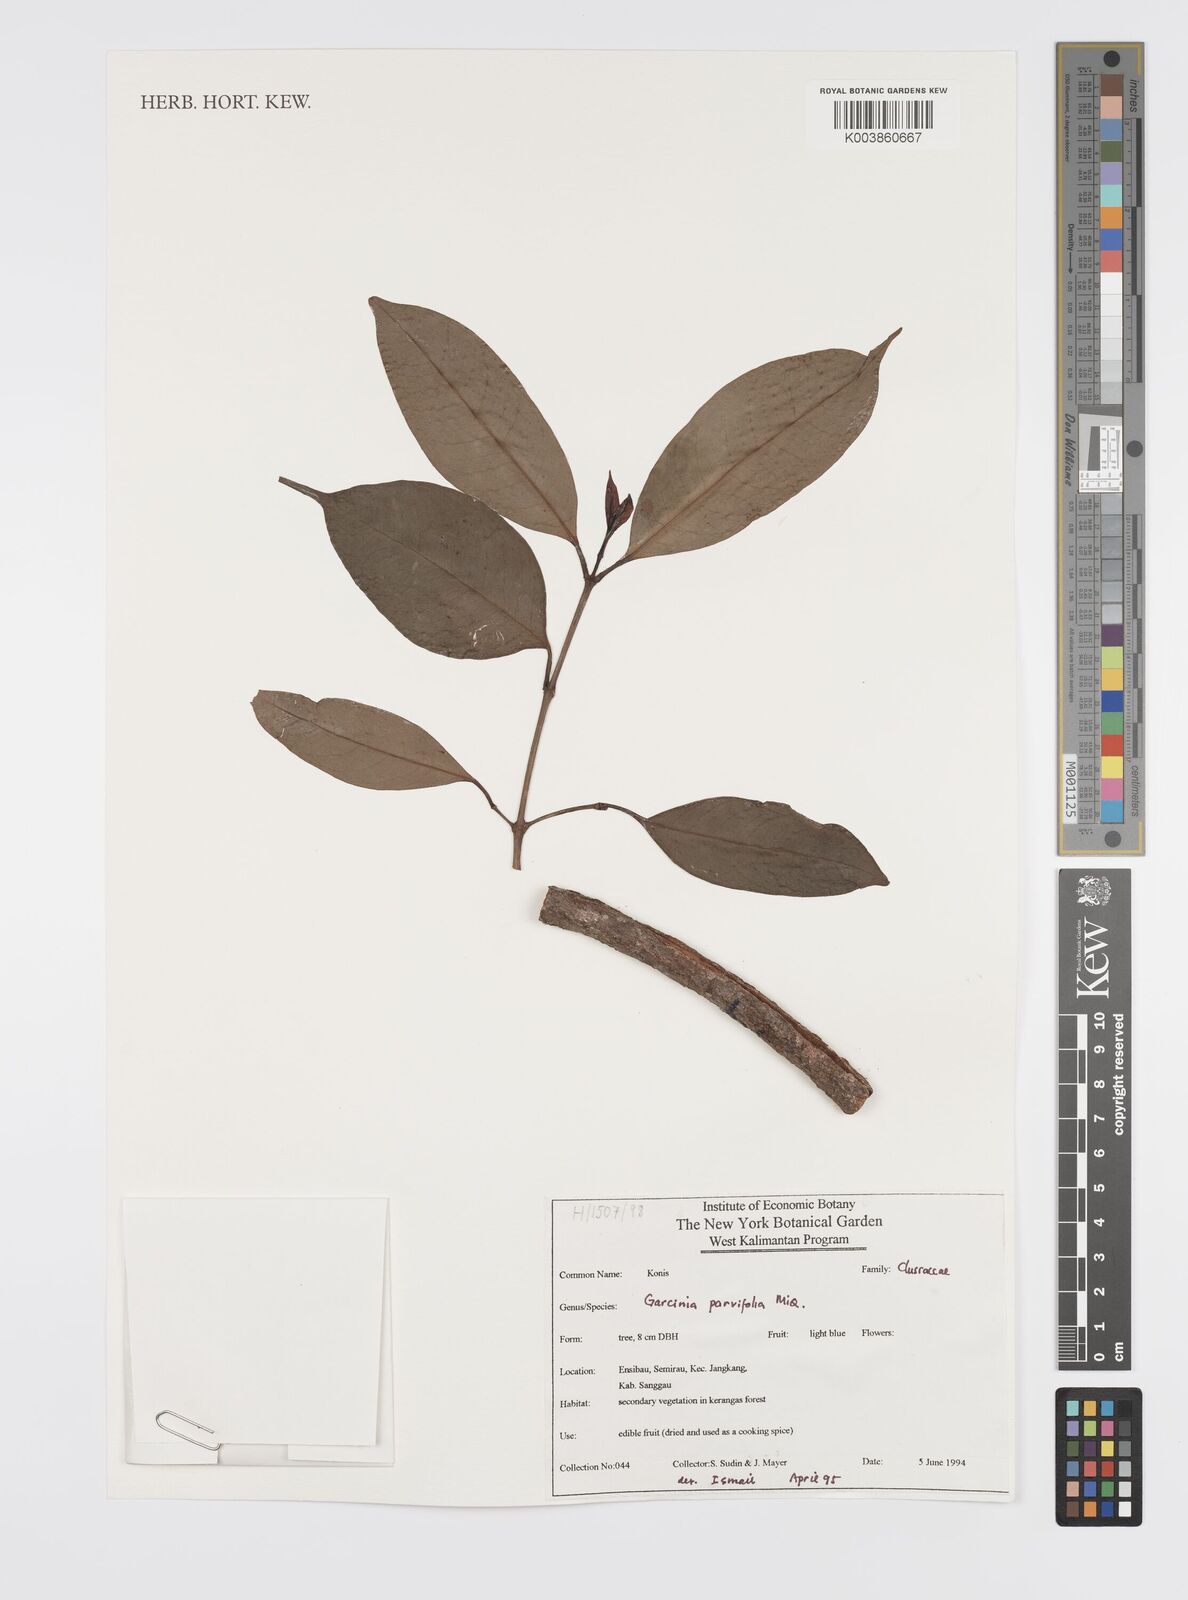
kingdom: Plantae
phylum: Tracheophyta
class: Magnoliopsida
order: Malpighiales
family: Clusiaceae
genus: Garcinia
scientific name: Garcinia parvifolia
